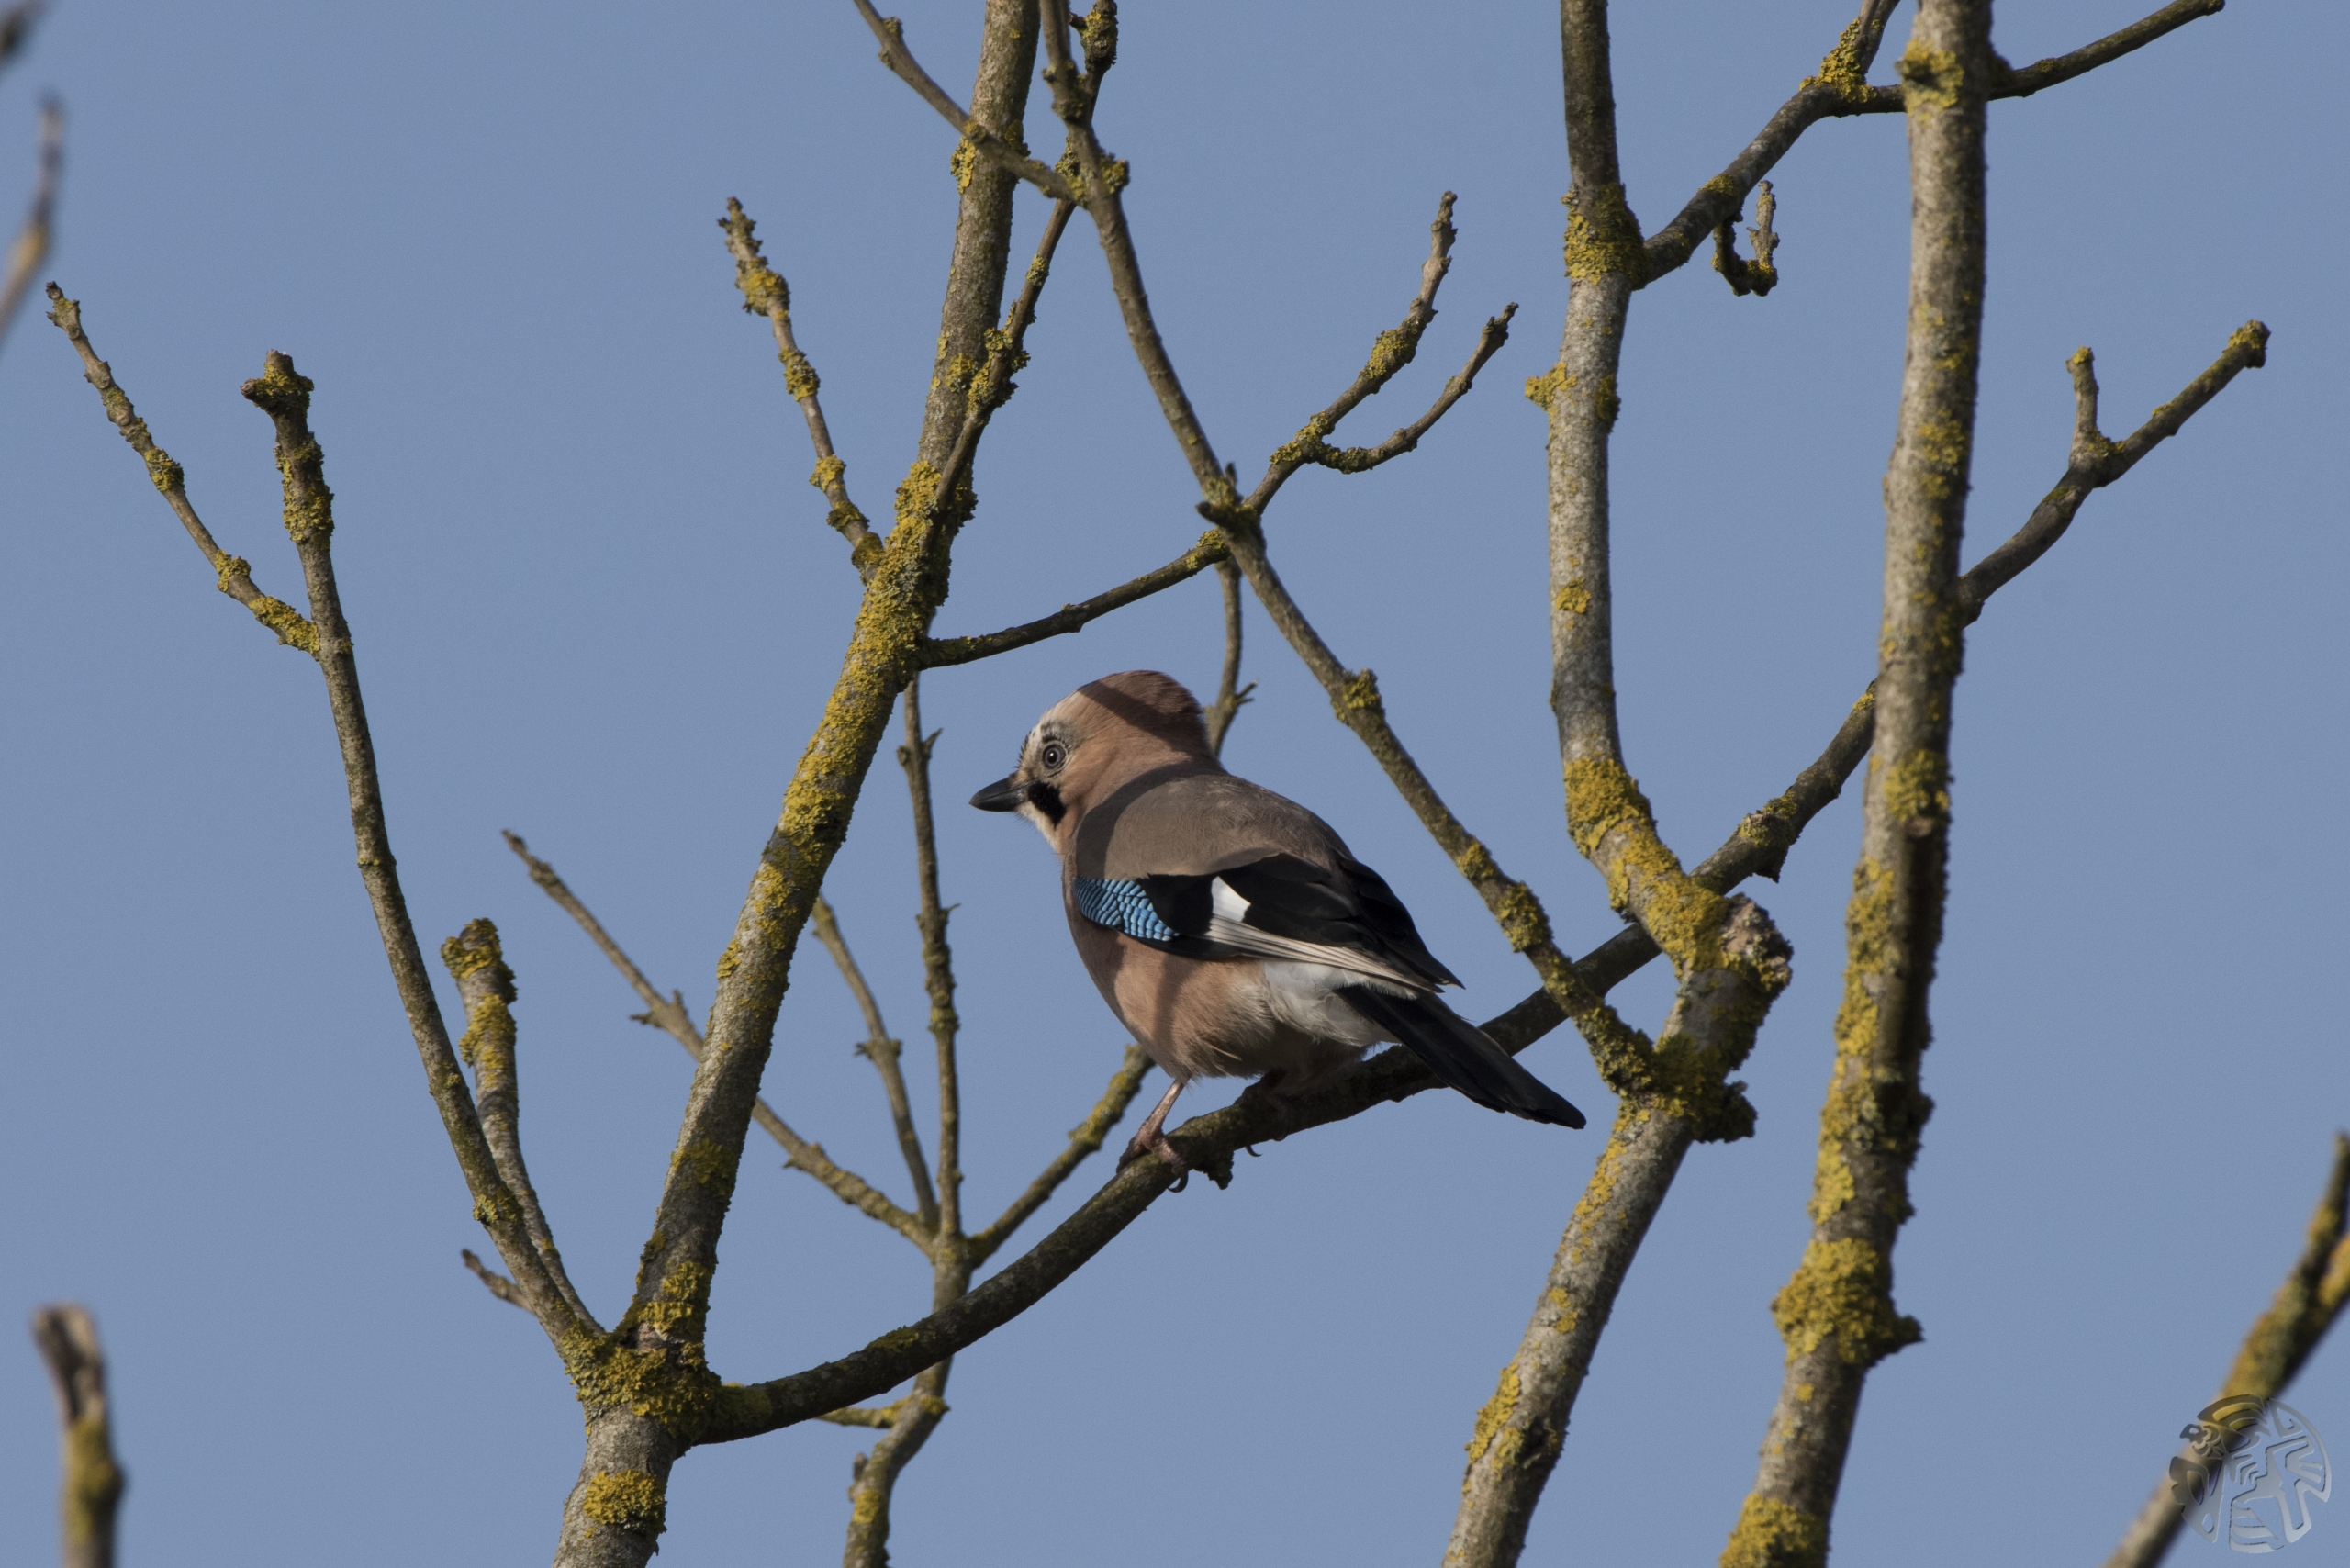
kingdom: Animalia
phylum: Chordata
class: Aves
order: Passeriformes
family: Corvidae
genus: Garrulus
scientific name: Garrulus glandarius
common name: Skovskade
